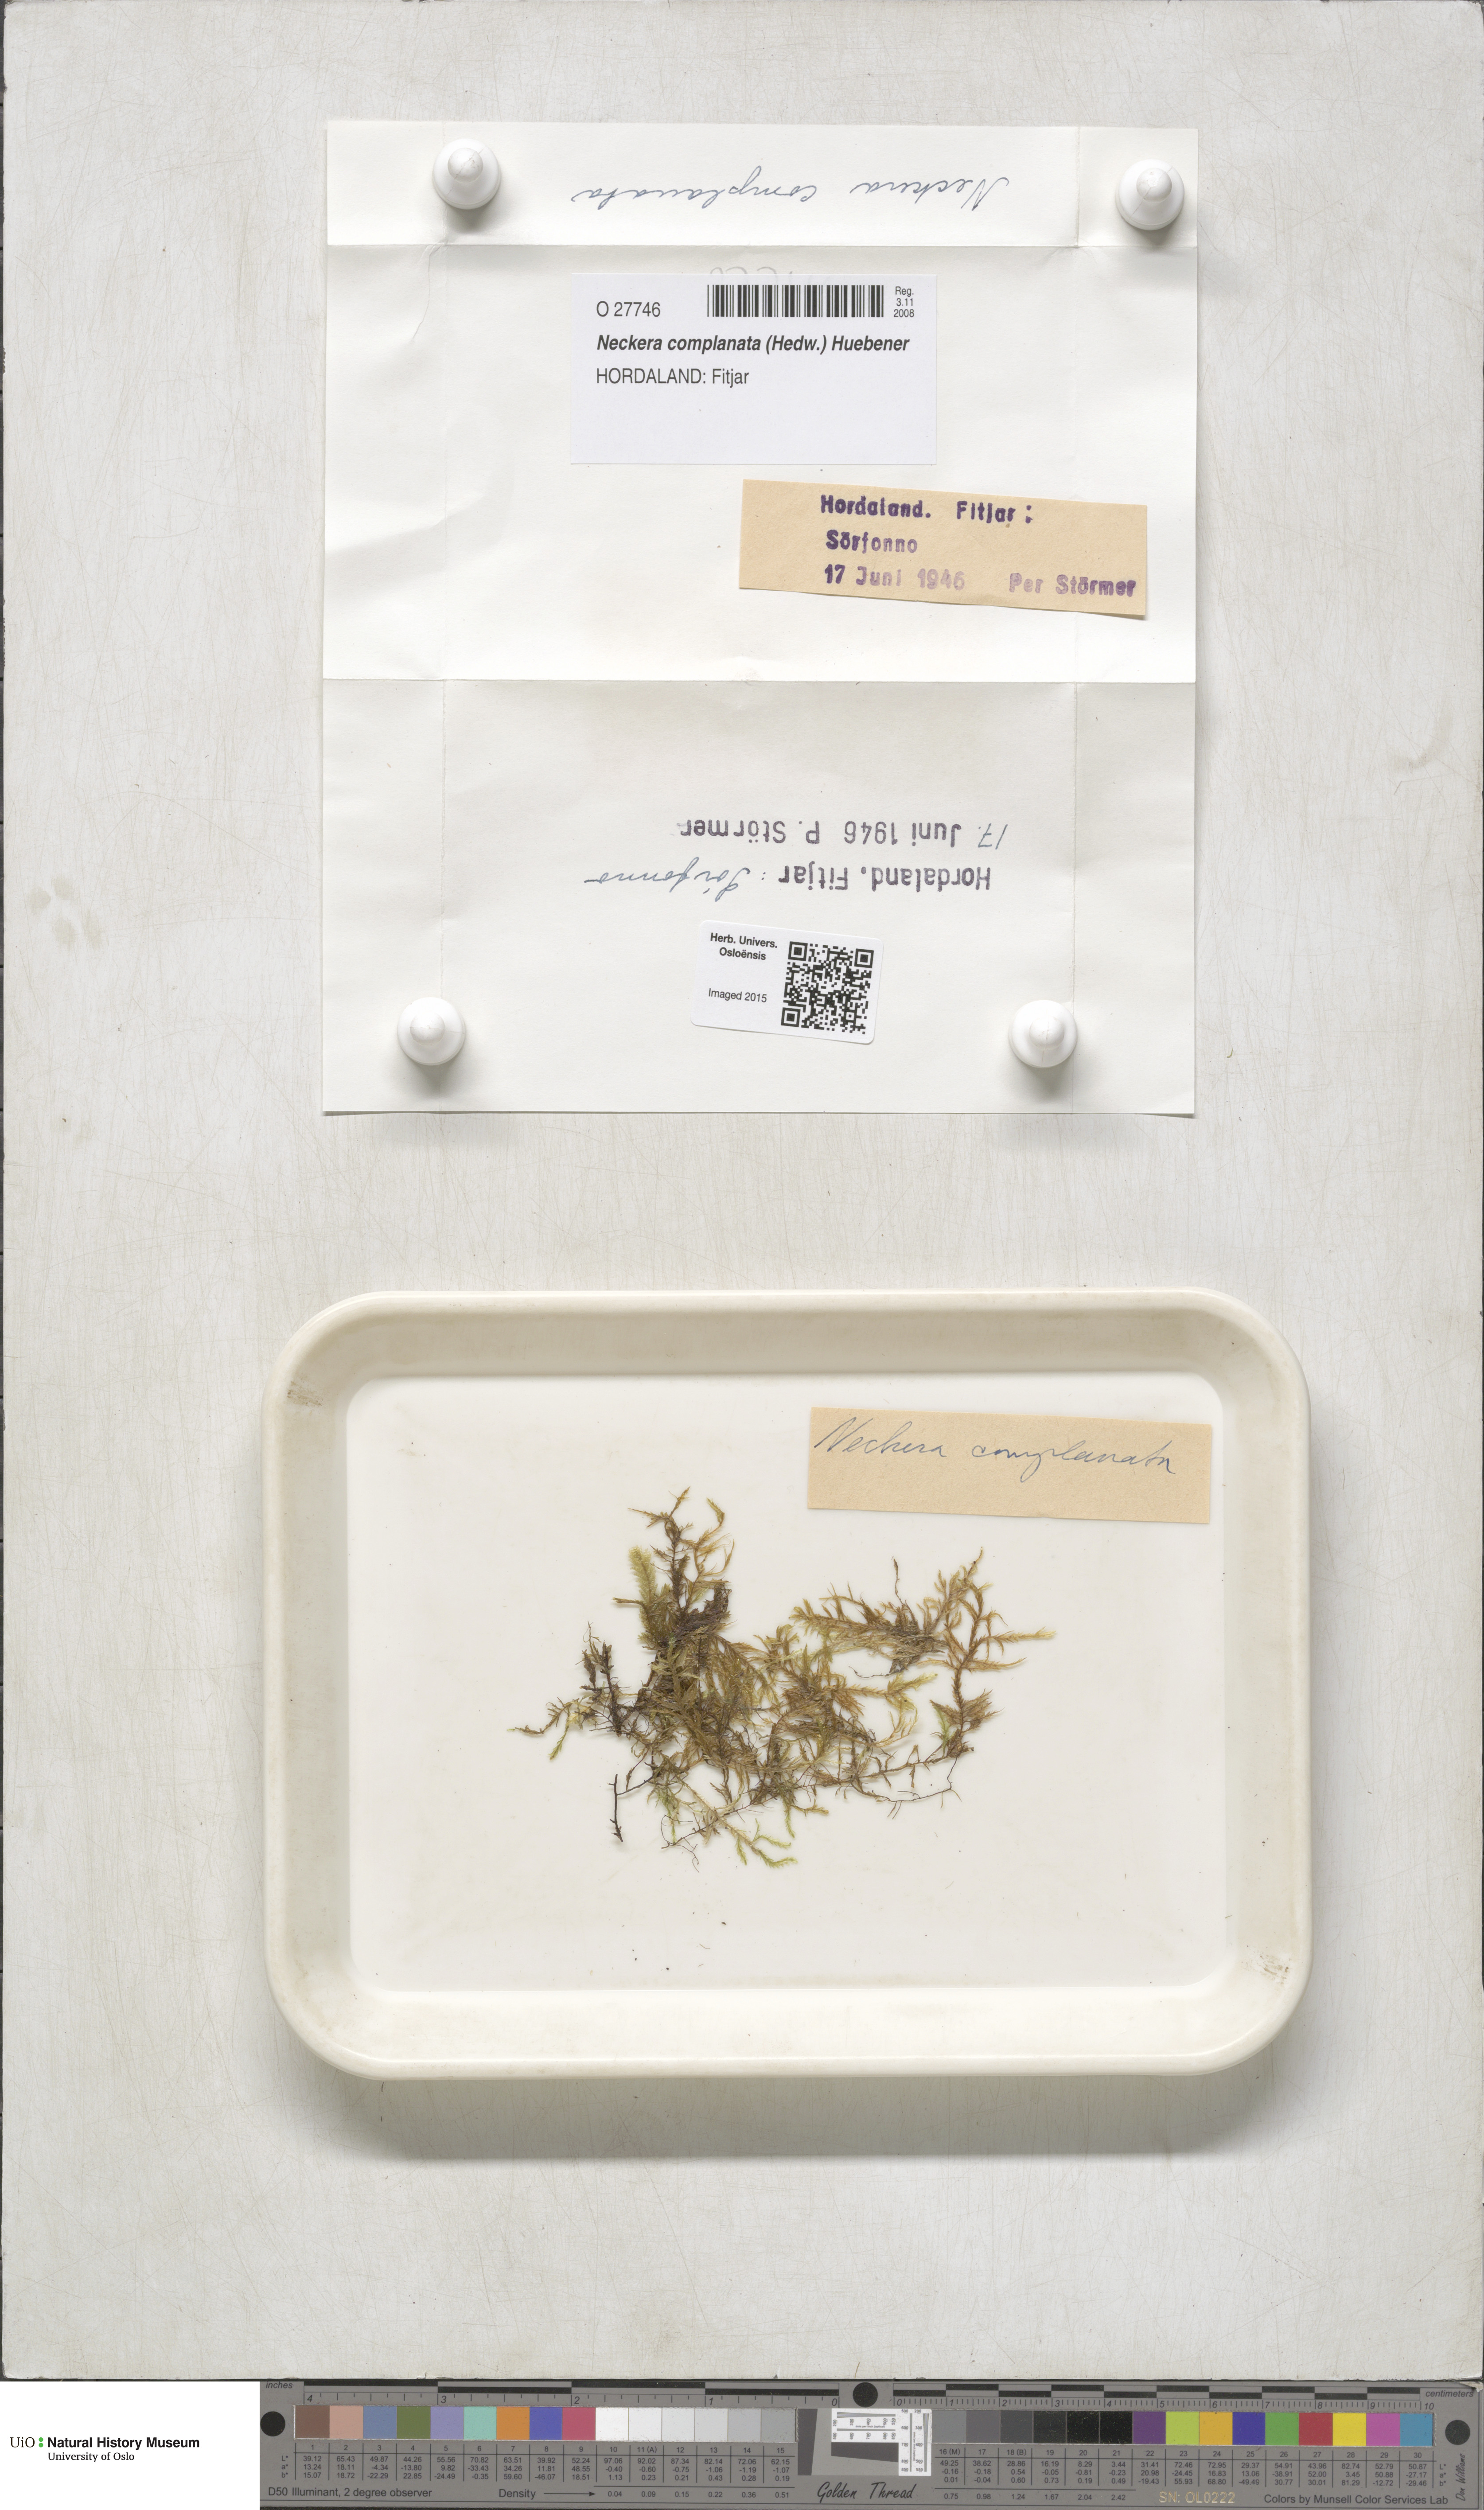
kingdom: Plantae
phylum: Bryophyta
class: Bryopsida
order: Hypnales
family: Neckeraceae
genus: Alleniella
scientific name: Alleniella complanata
